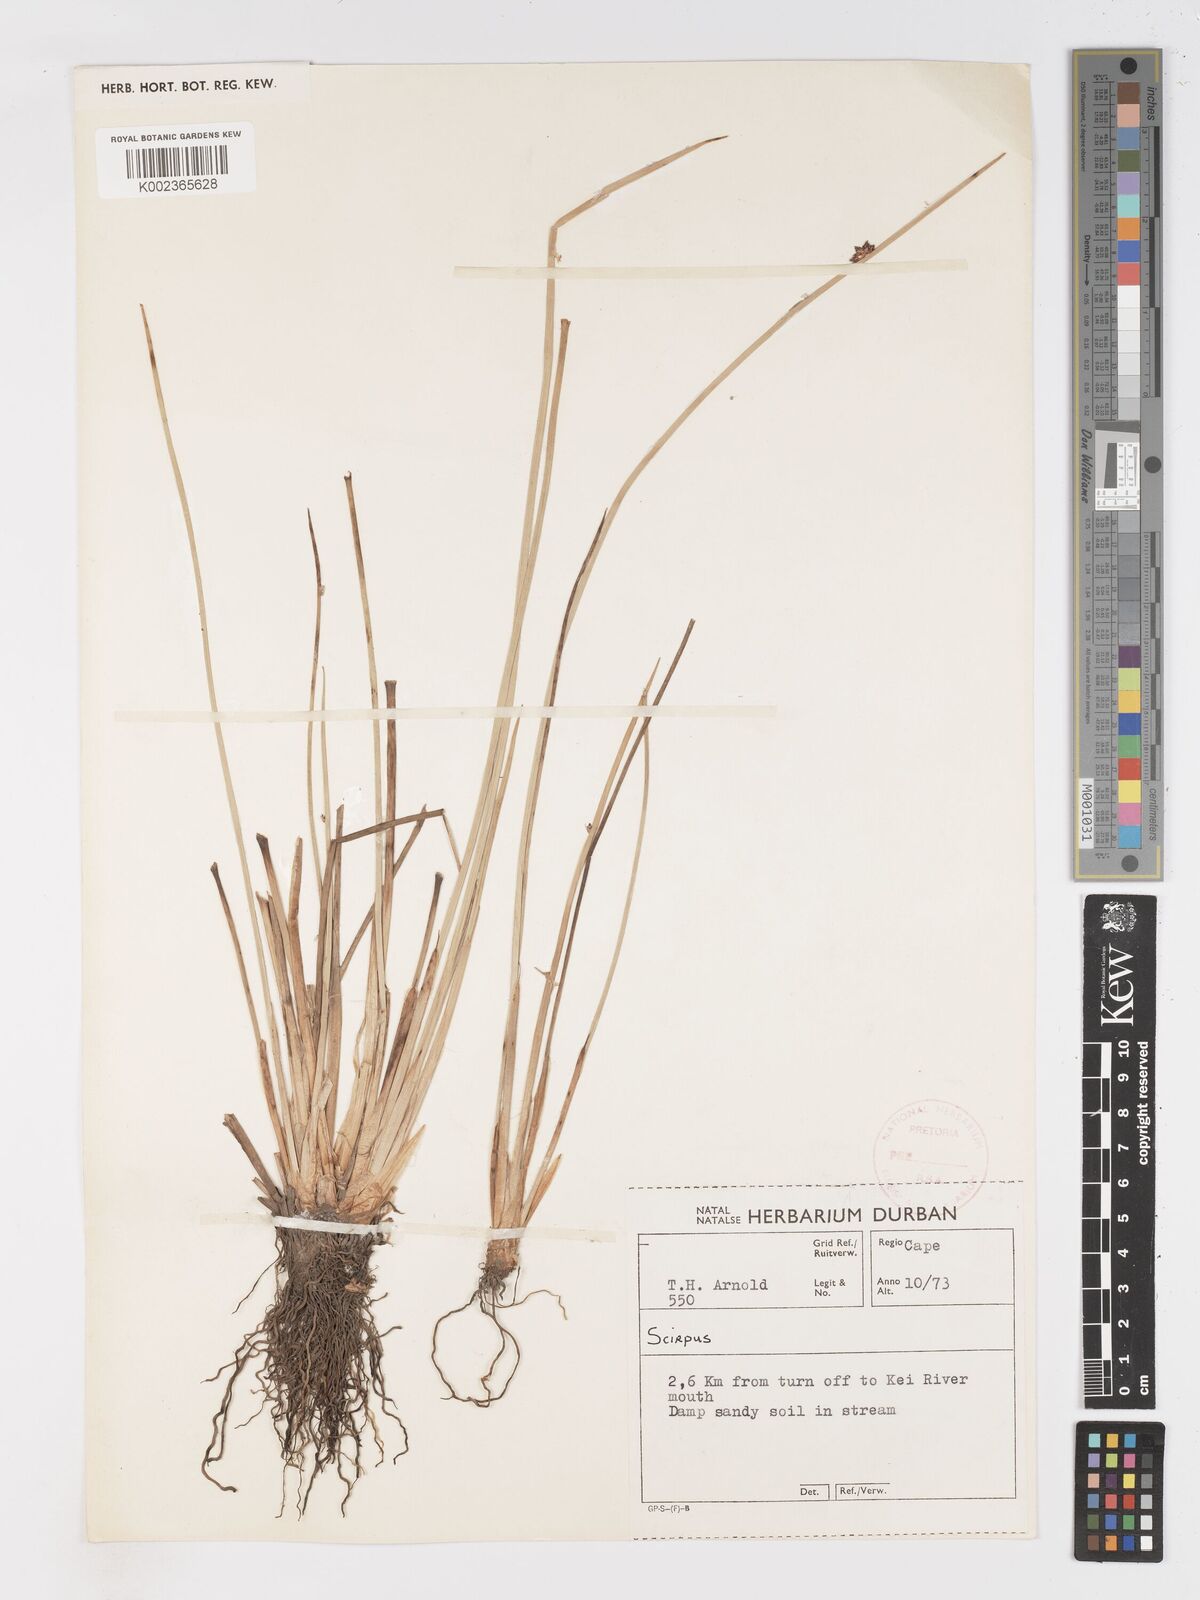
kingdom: Plantae
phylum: Tracheophyta
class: Liliopsida
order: Poales
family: Cyperaceae
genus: Schoenoplectus
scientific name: Schoenoplectus
